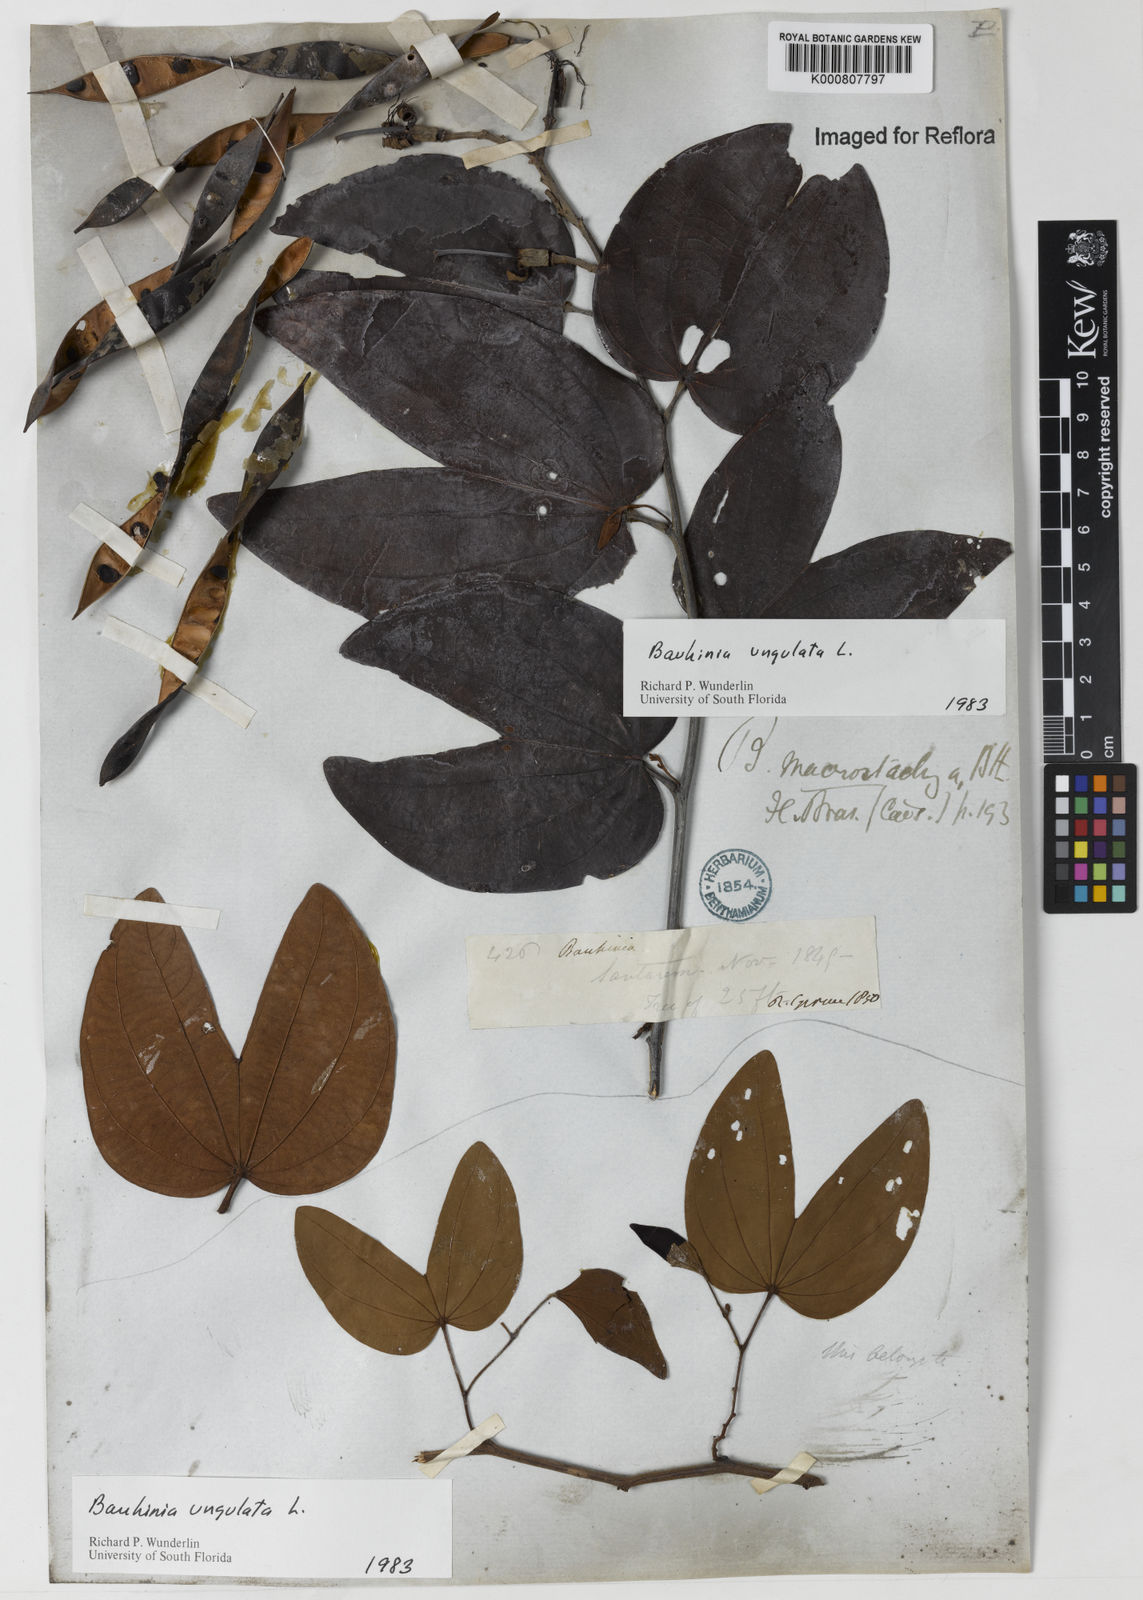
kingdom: Plantae
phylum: Tracheophyta
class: Magnoliopsida
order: Fabales
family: Fabaceae
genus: Bauhinia
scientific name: Bauhinia ungulata
